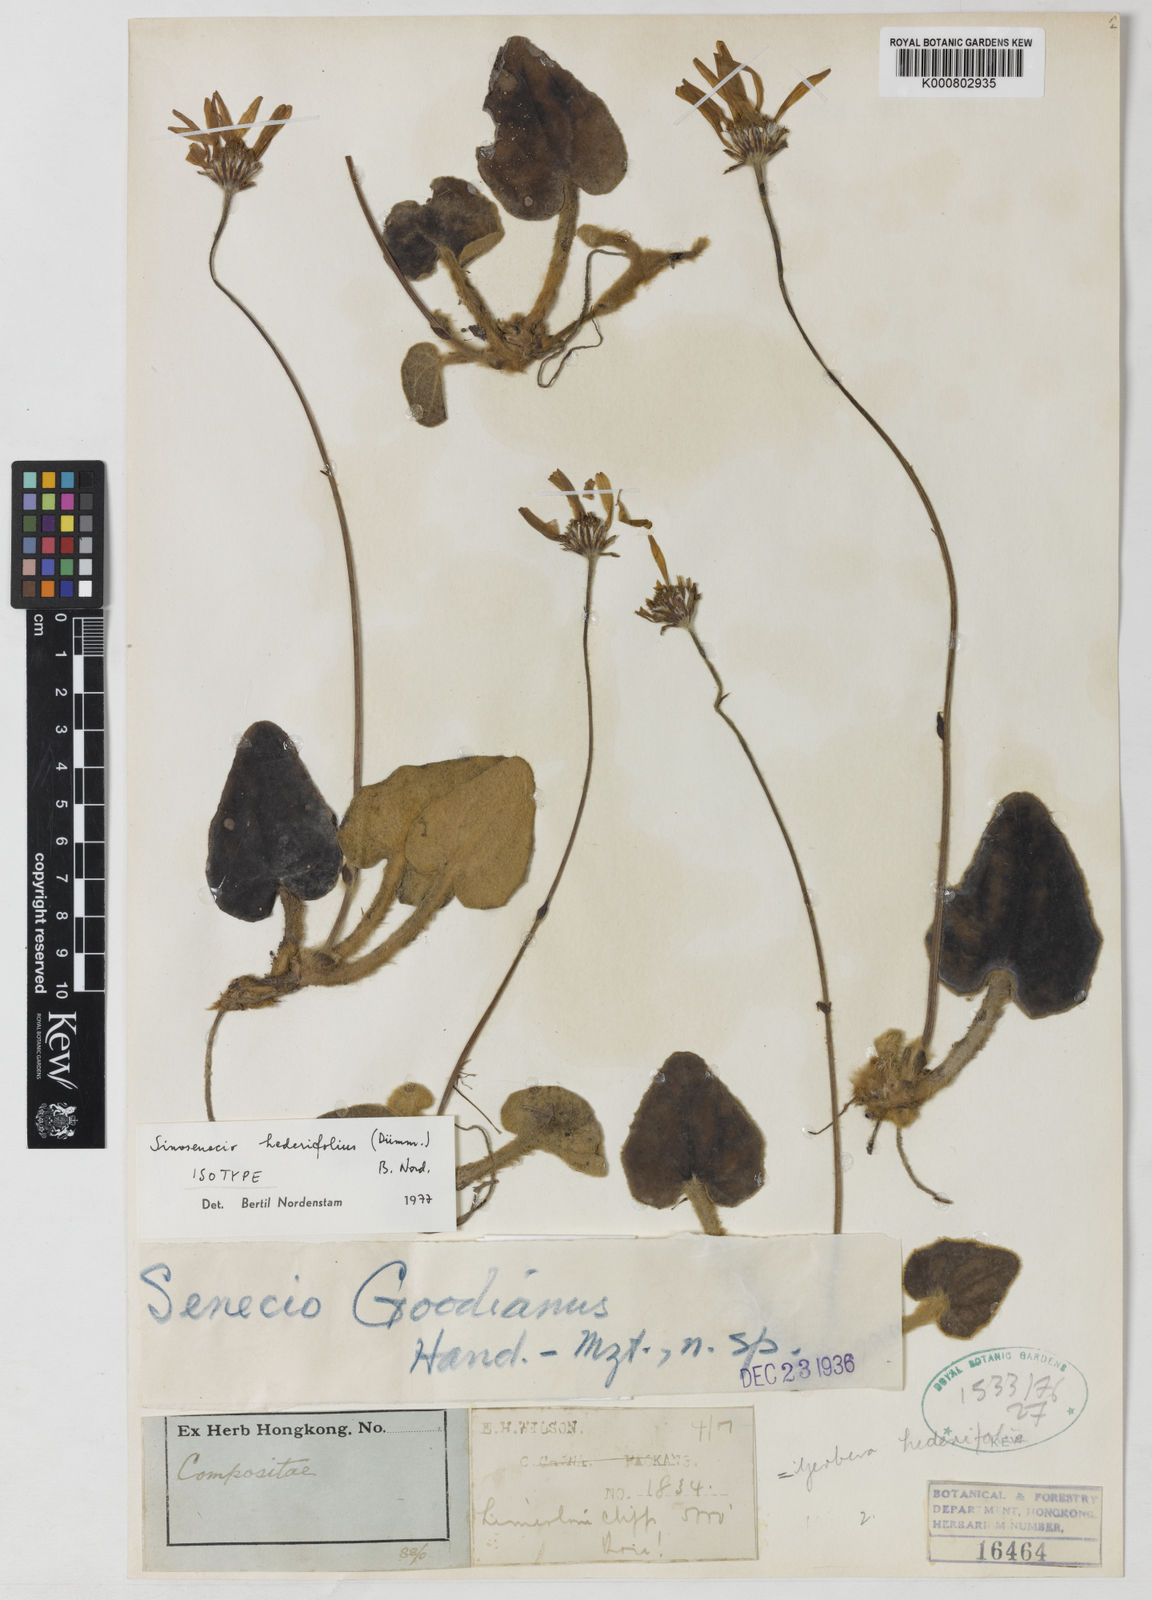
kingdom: Plantae
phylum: Tracheophyta
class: Magnoliopsida
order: Asterales
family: Asteraceae
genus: Sinosenecio
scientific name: Sinosenecio
